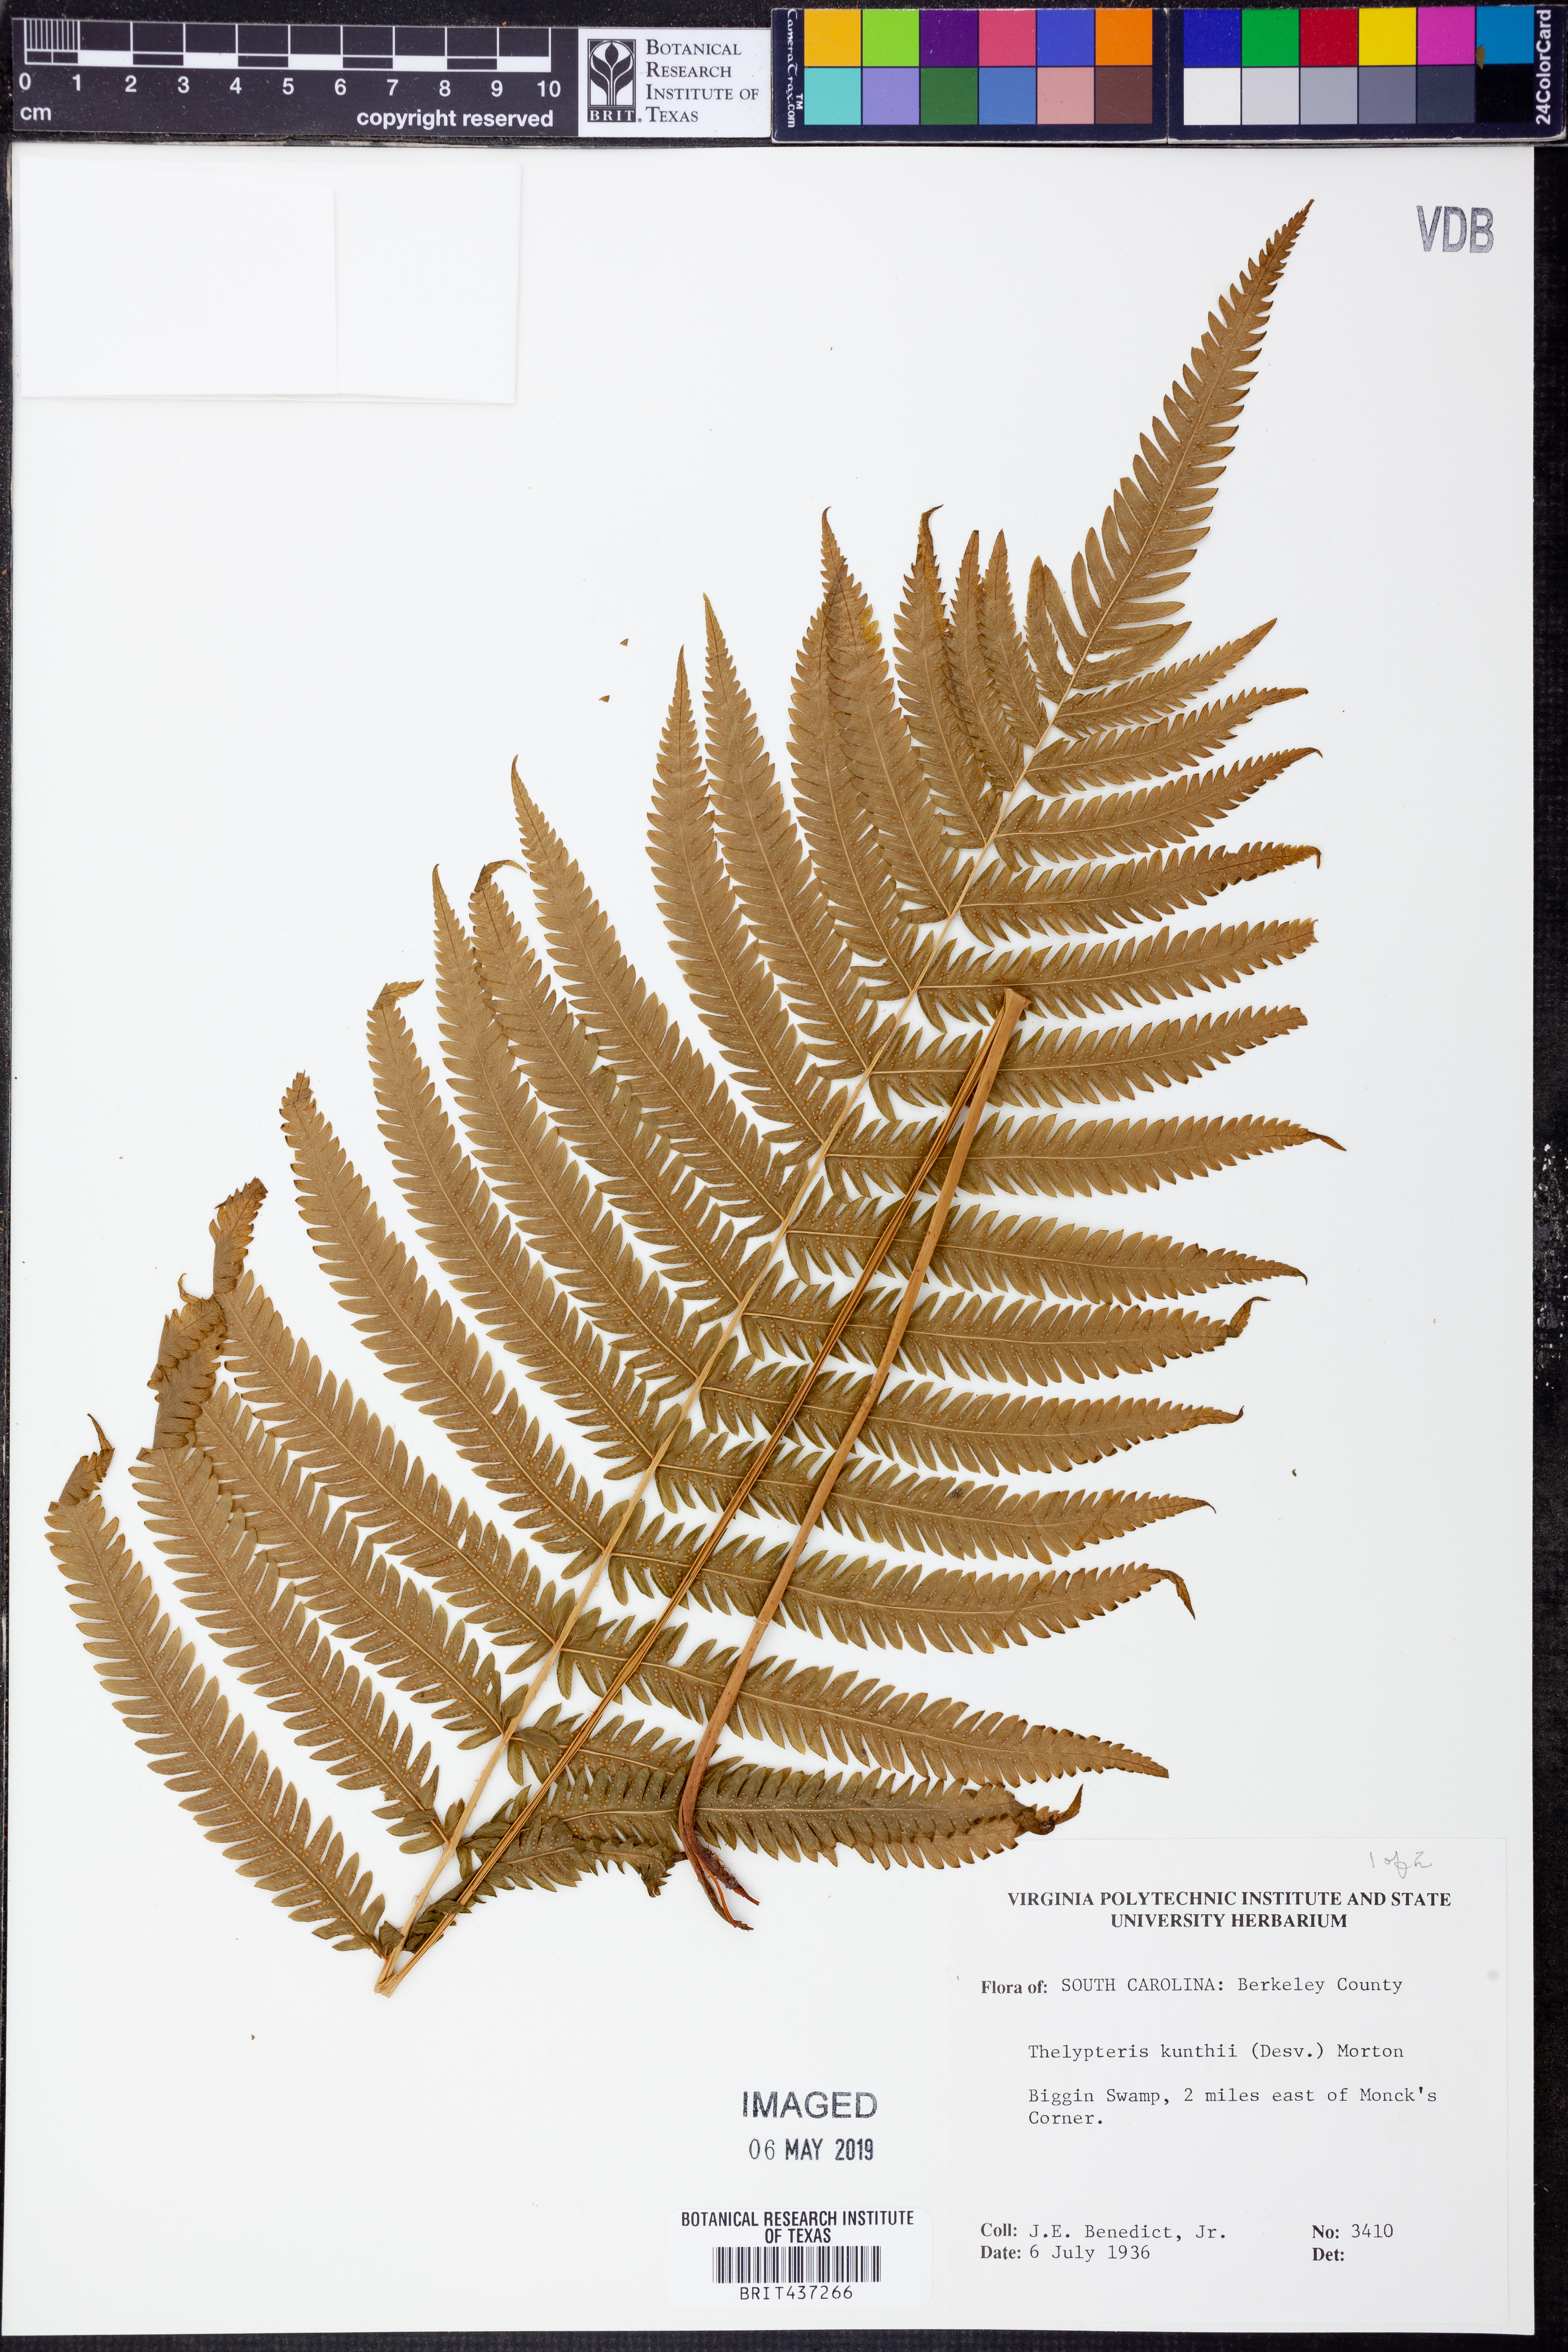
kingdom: Plantae
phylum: Tracheophyta
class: Polypodiopsida
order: Polypodiales
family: Thelypteridaceae
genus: Pelazoneuron
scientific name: Pelazoneuron kunthii
